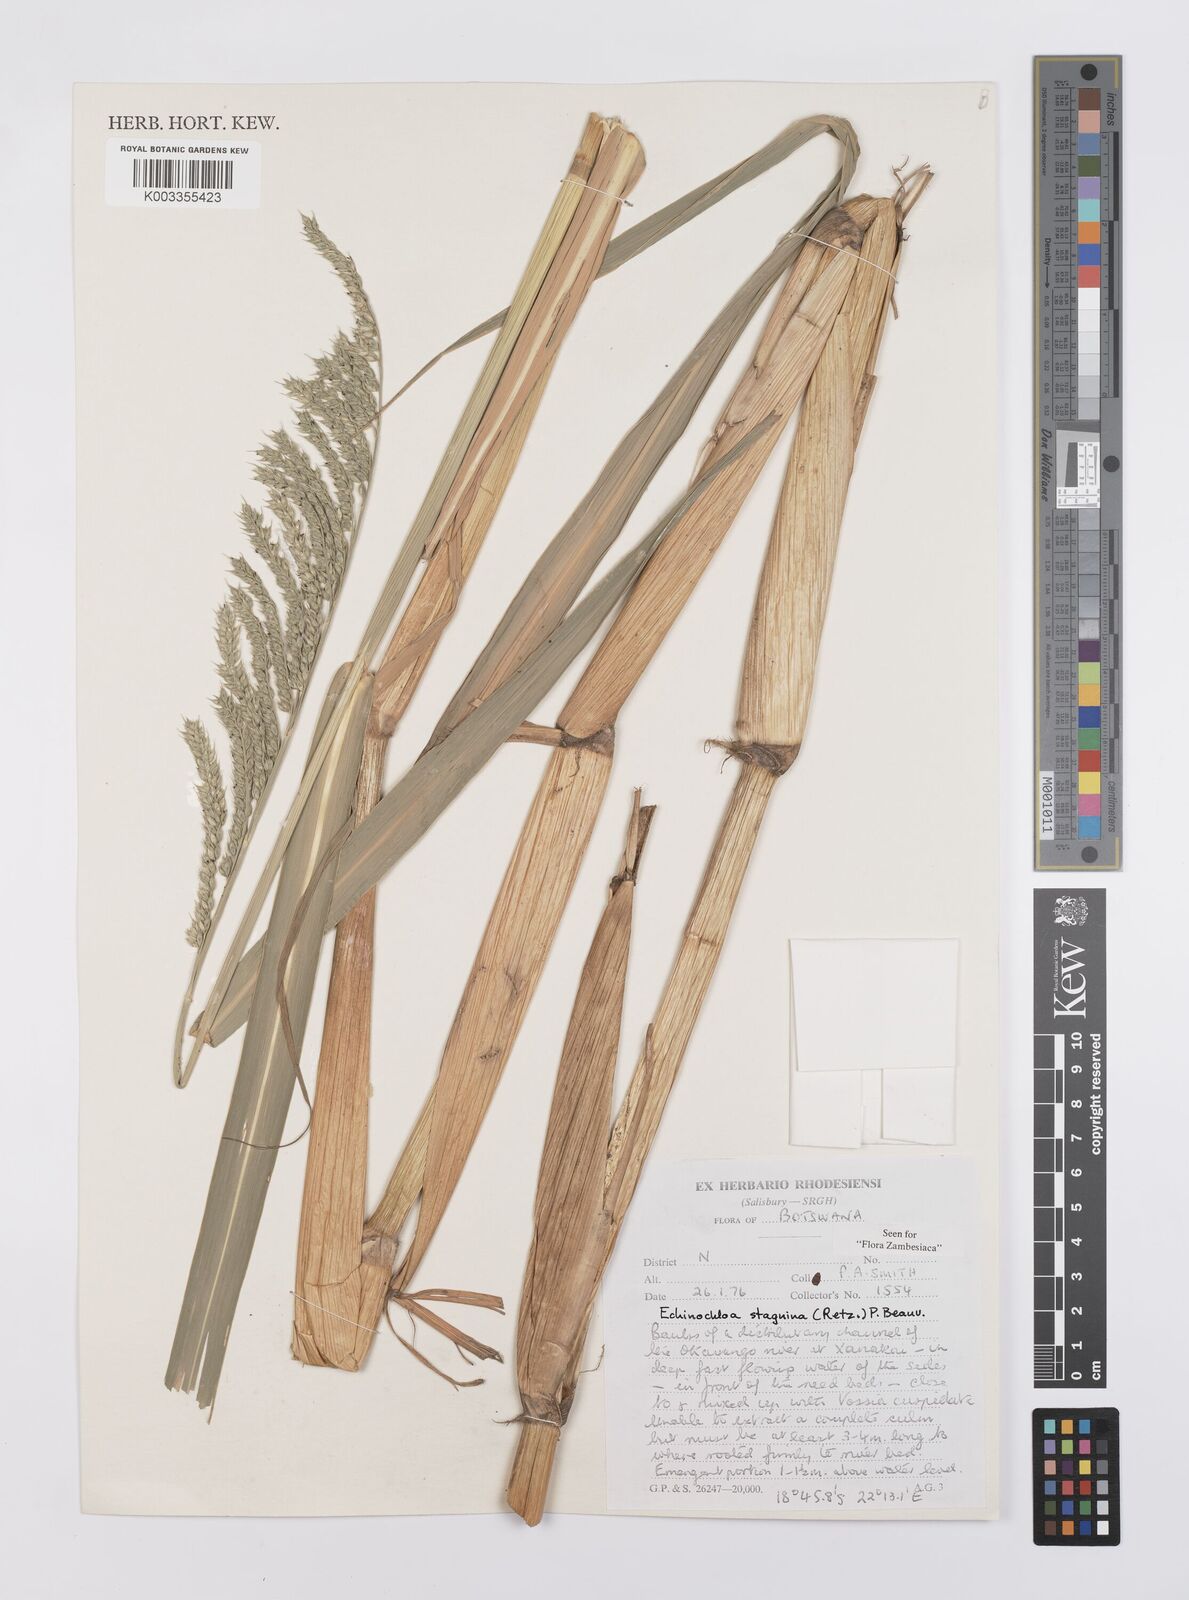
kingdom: Plantae
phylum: Tracheophyta
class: Liliopsida
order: Poales
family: Poaceae
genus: Echinochloa
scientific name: Echinochloa stagnina
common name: Burgu grass
